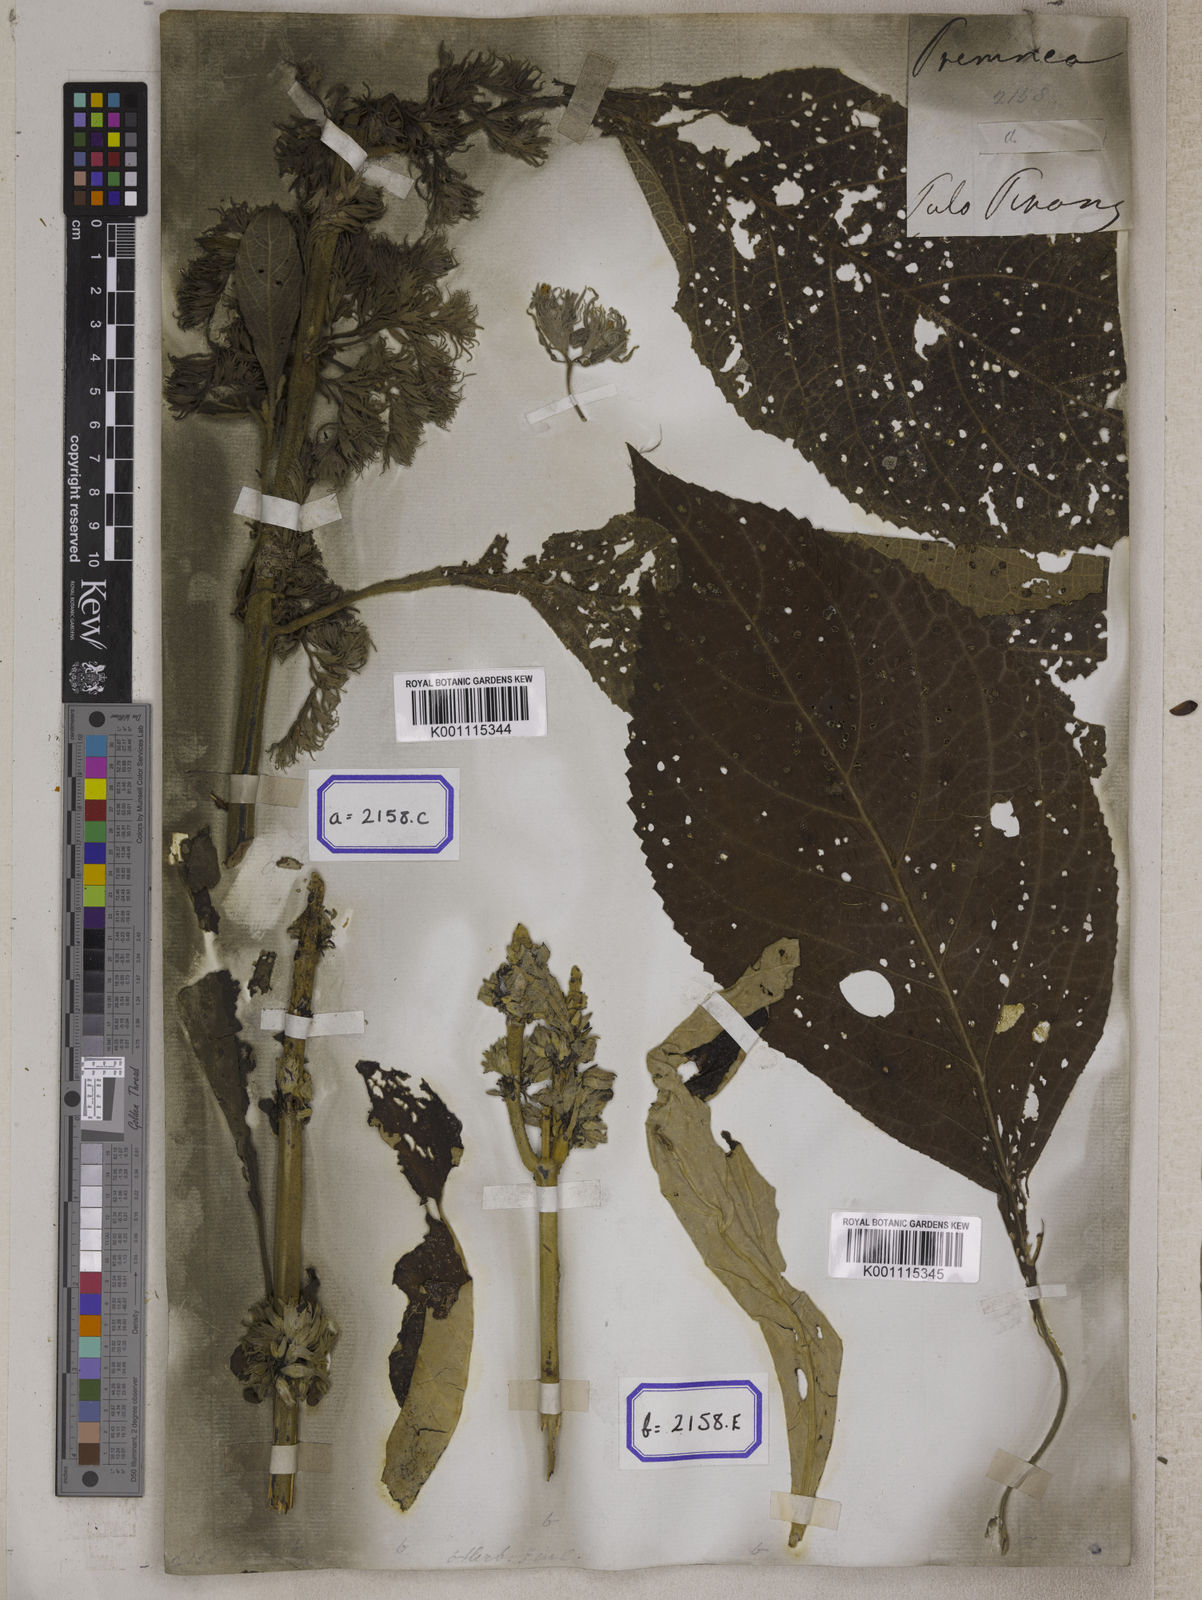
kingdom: Plantae
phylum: Tracheophyta
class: Magnoliopsida
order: Lamiales
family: Lamiaceae
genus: Gomphostemma
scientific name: Gomphostemma
